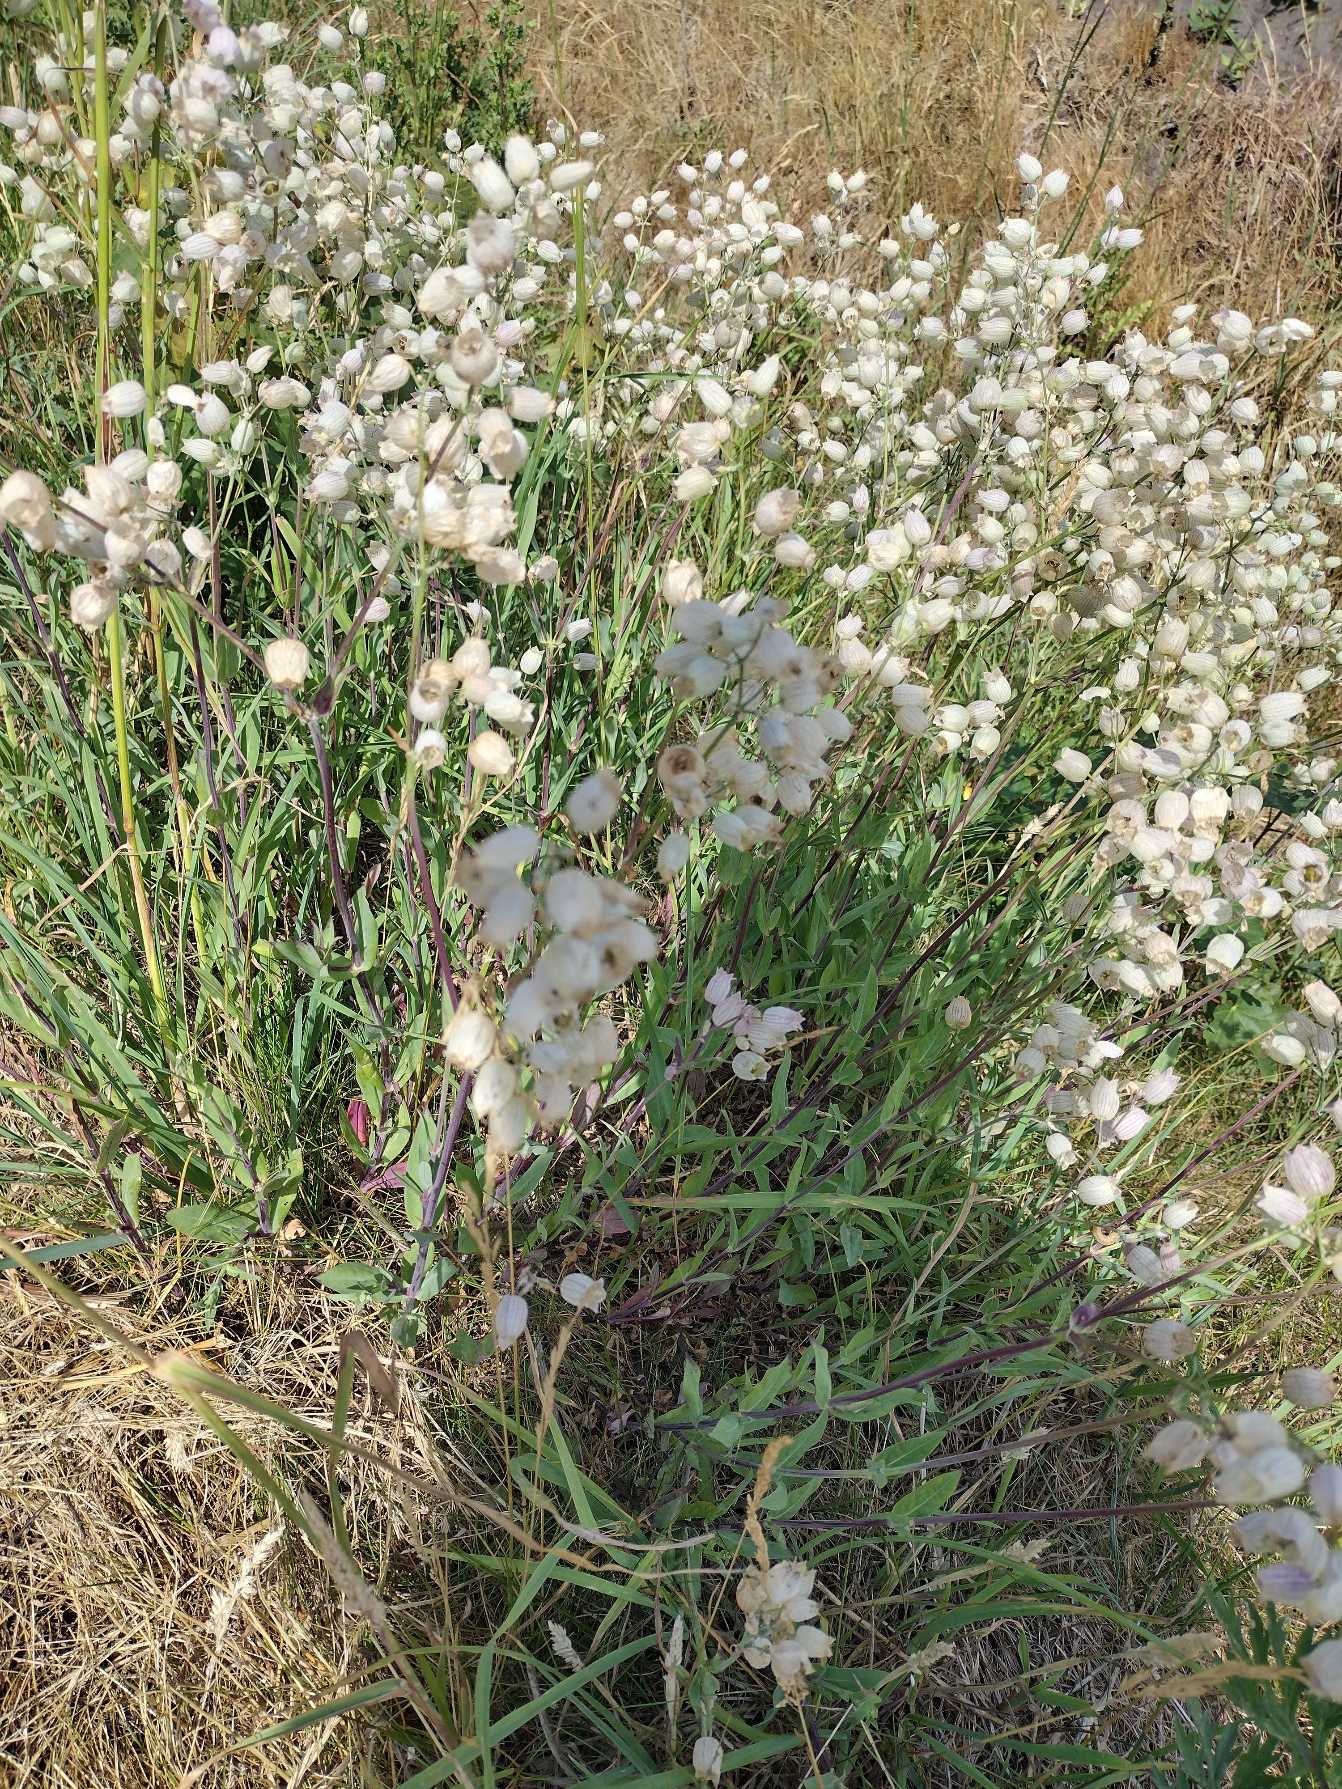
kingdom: Plantae
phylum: Tracheophyta
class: Magnoliopsida
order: Caryophyllales
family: Caryophyllaceae
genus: Silene
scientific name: Silene vulgaris
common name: Blæresmælde
